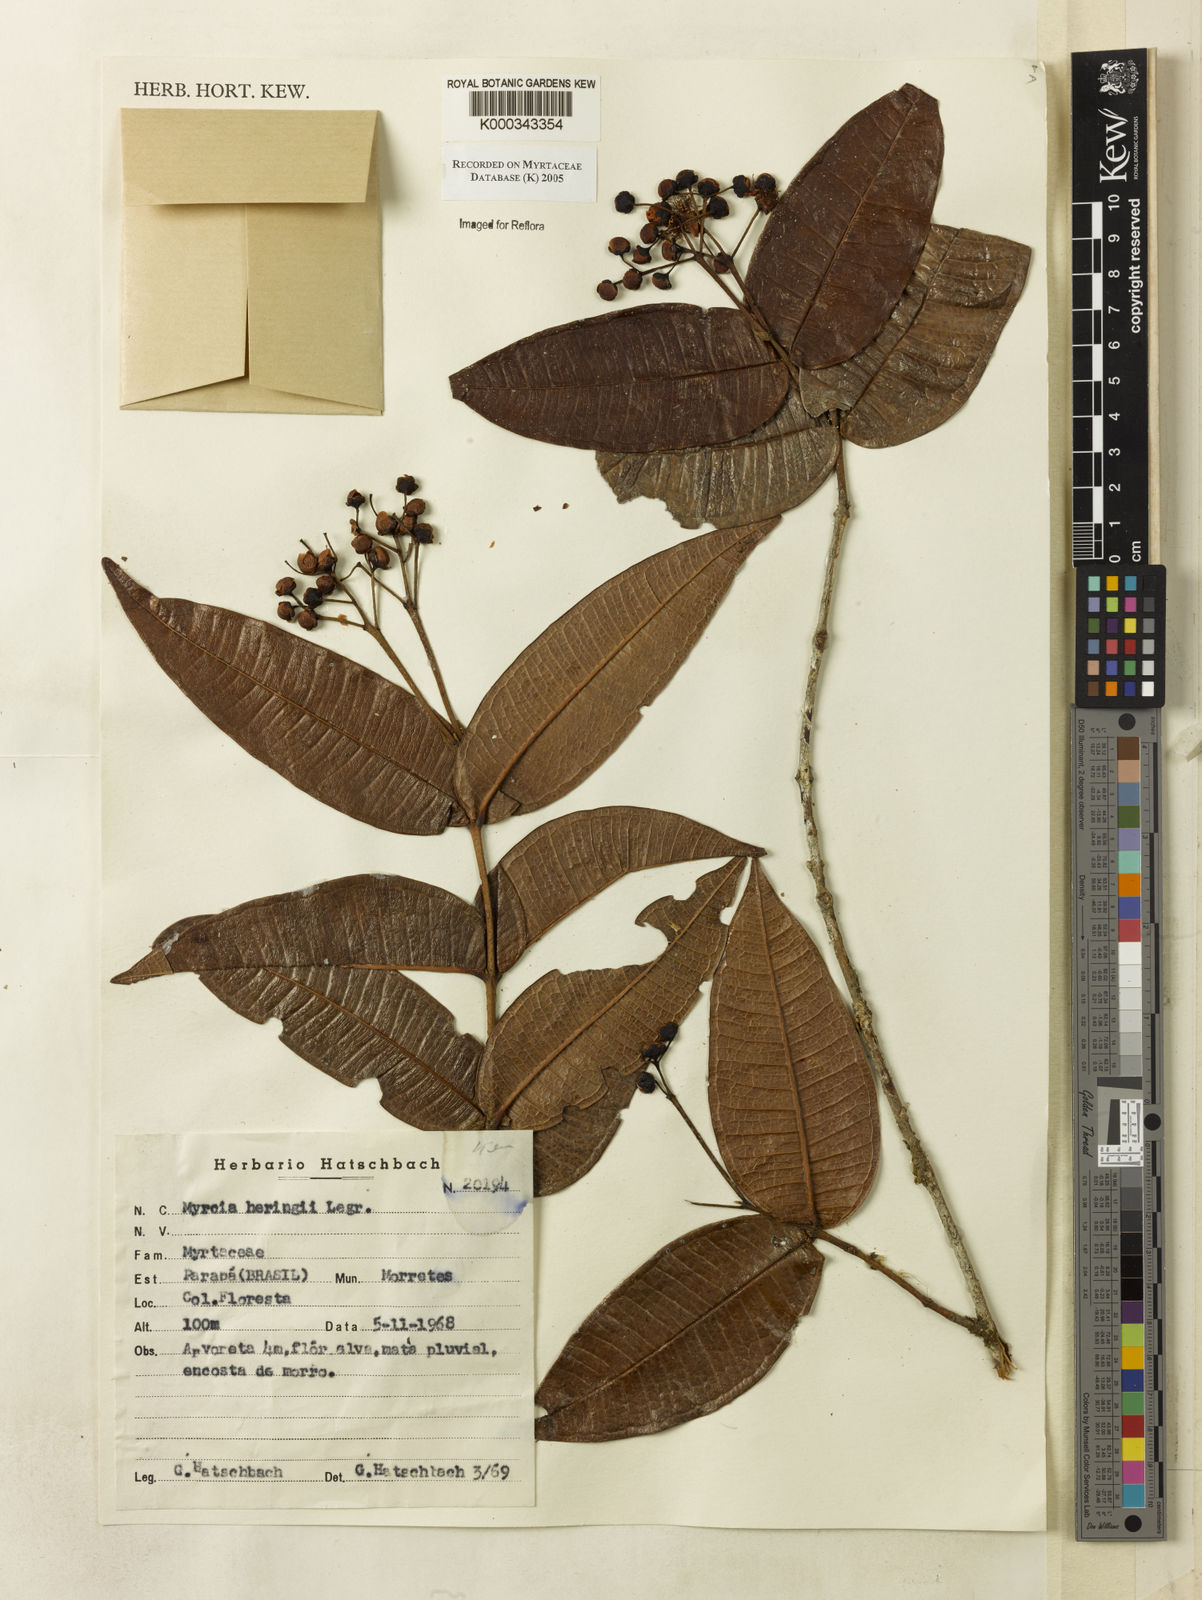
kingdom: Plantae
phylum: Tracheophyta
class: Magnoliopsida
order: Myrtales
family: Myrtaceae
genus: Myrcia
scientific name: Myrcia heringii
